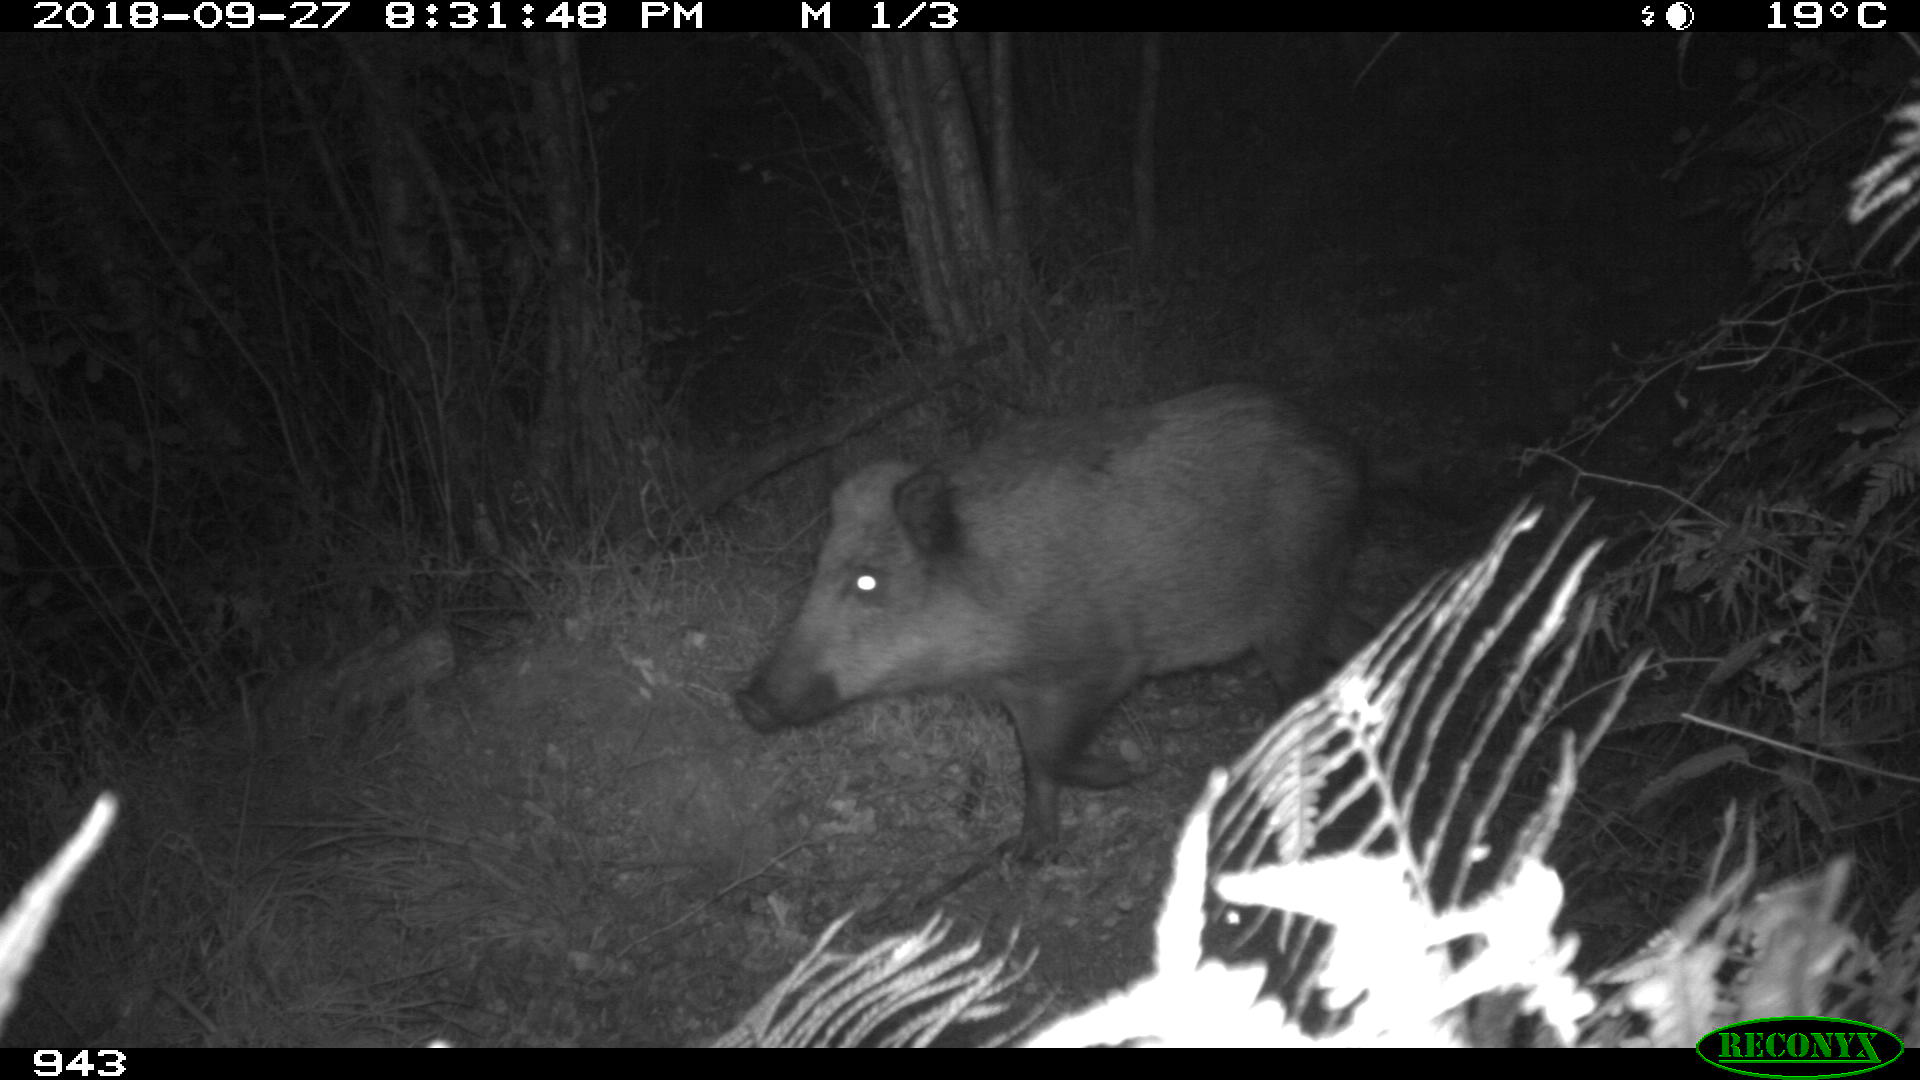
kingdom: Animalia
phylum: Chordata
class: Mammalia
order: Artiodactyla
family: Suidae
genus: Sus
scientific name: Sus scrofa
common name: Wild boar
